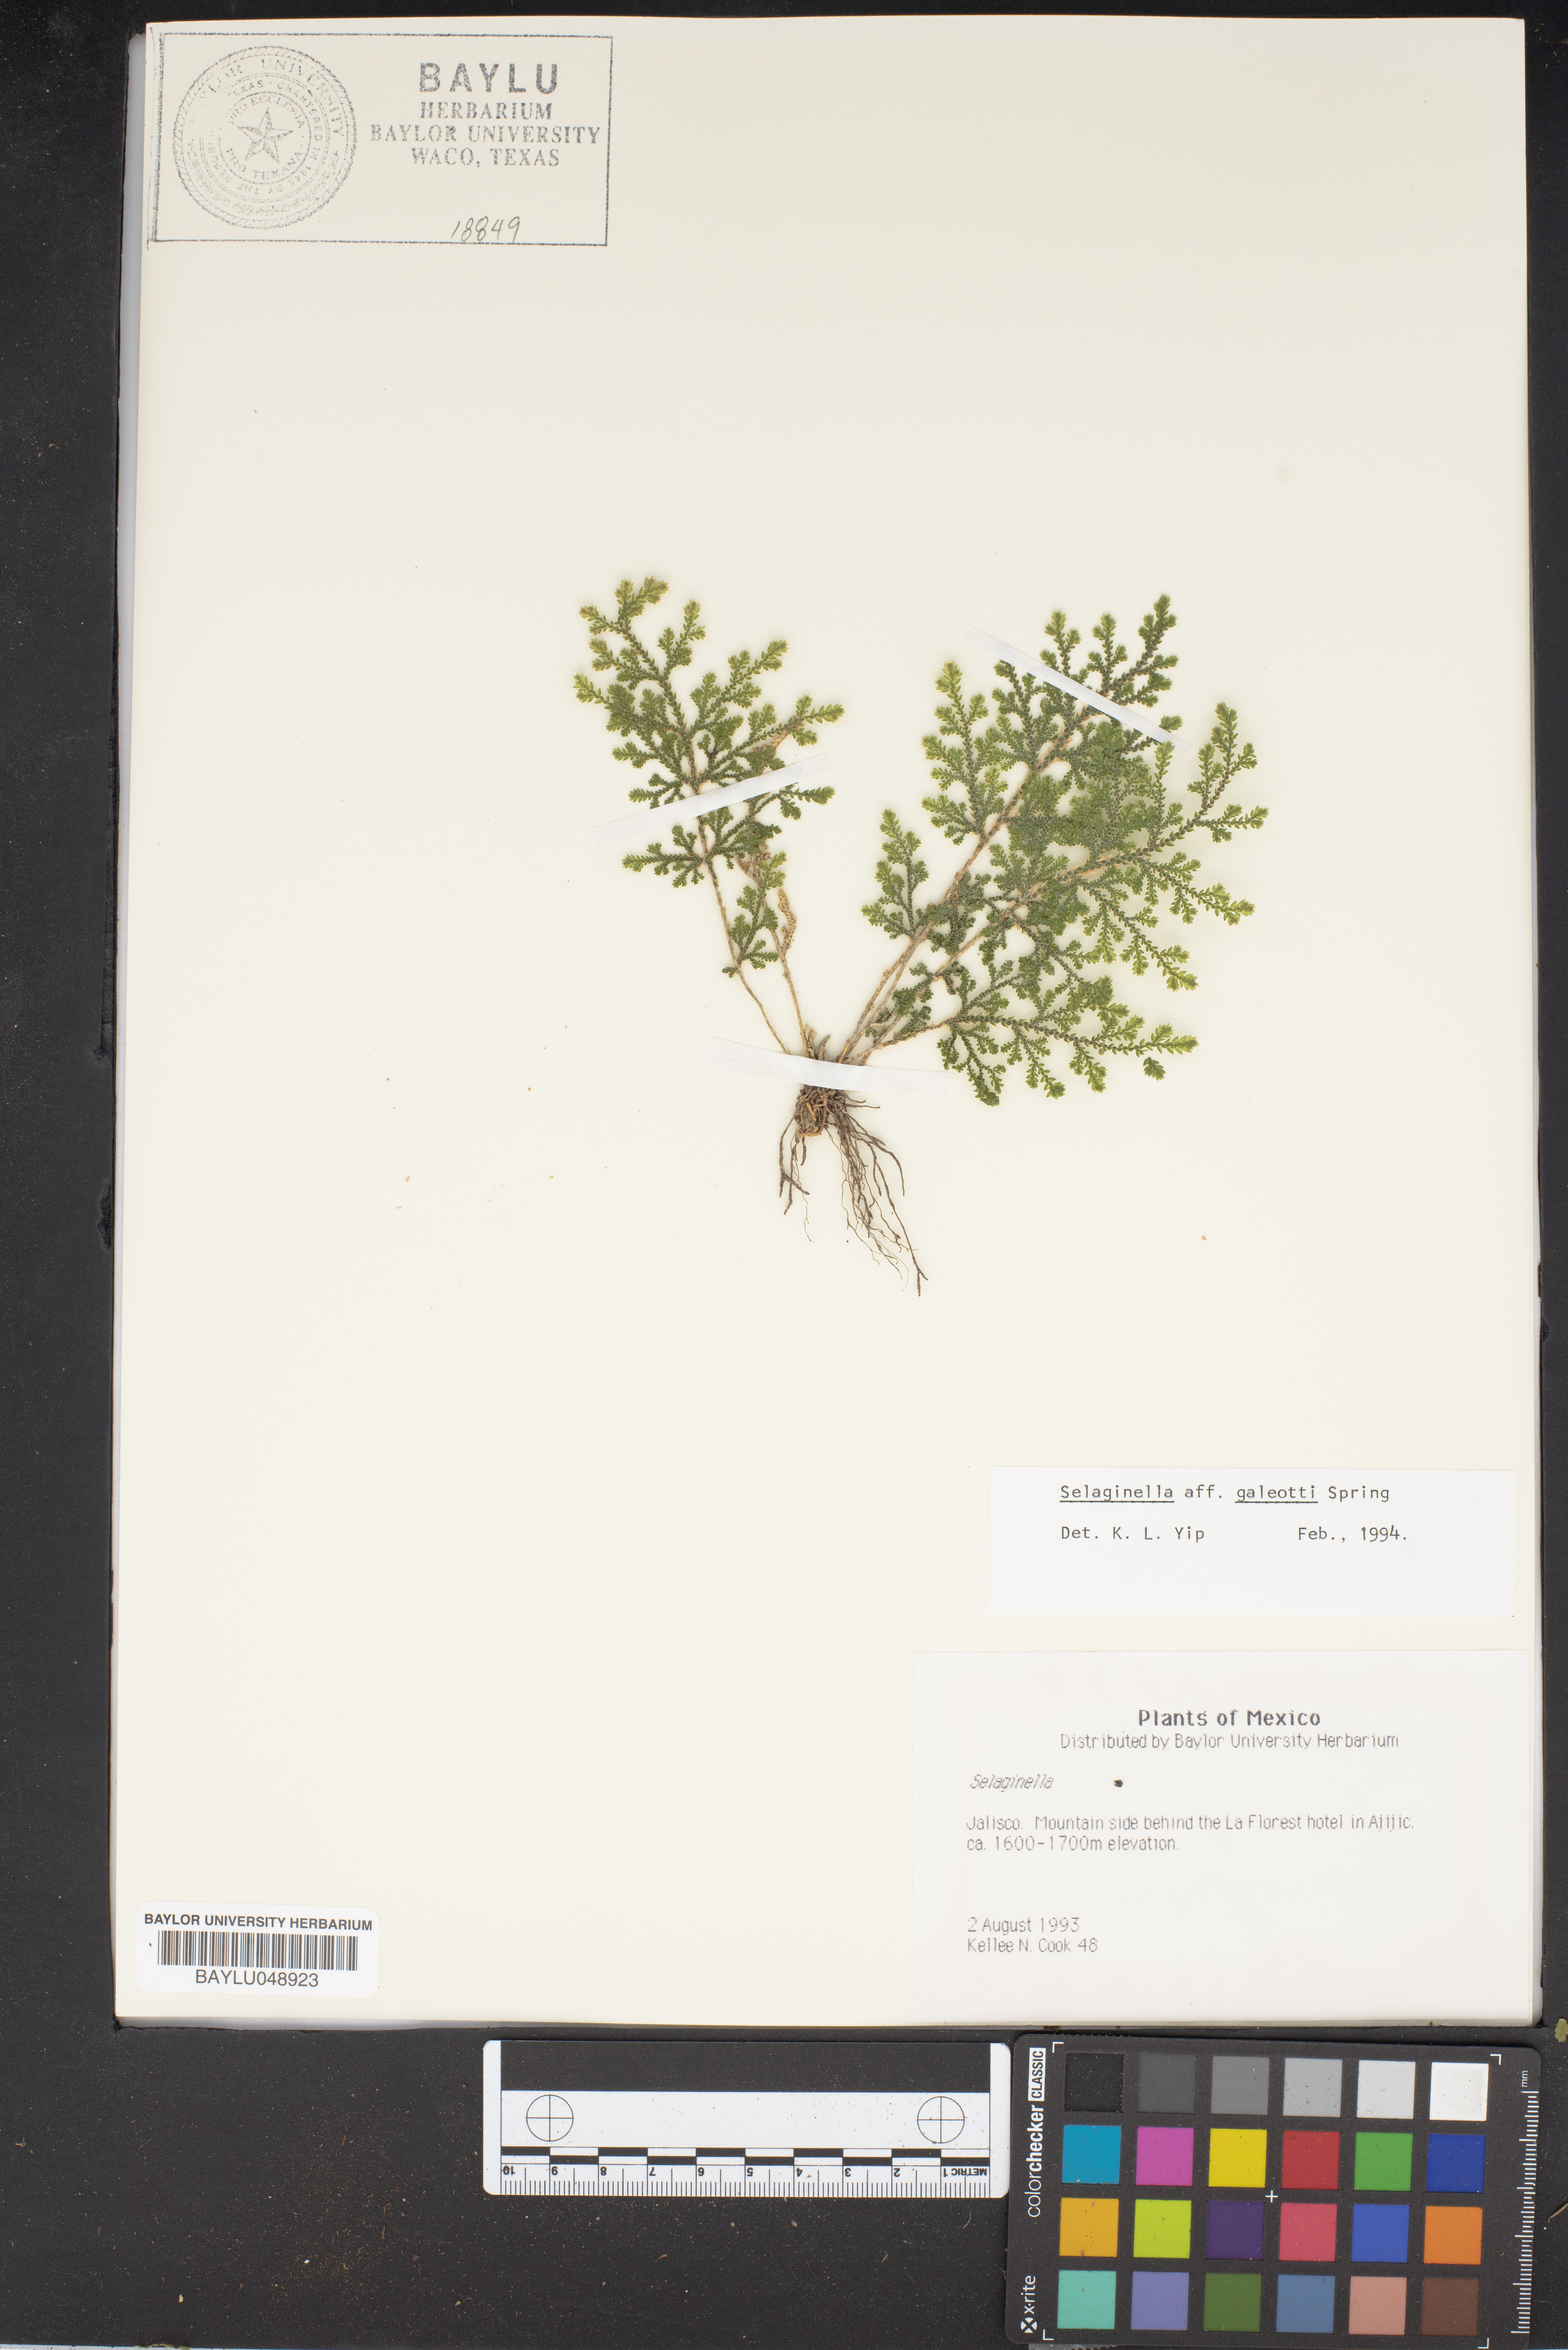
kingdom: Plantae
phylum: Tracheophyta
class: Lycopodiopsida
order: Selaginellales
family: Selaginellaceae
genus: Selaginella
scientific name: Selaginella stellata
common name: Starry spikemoss
